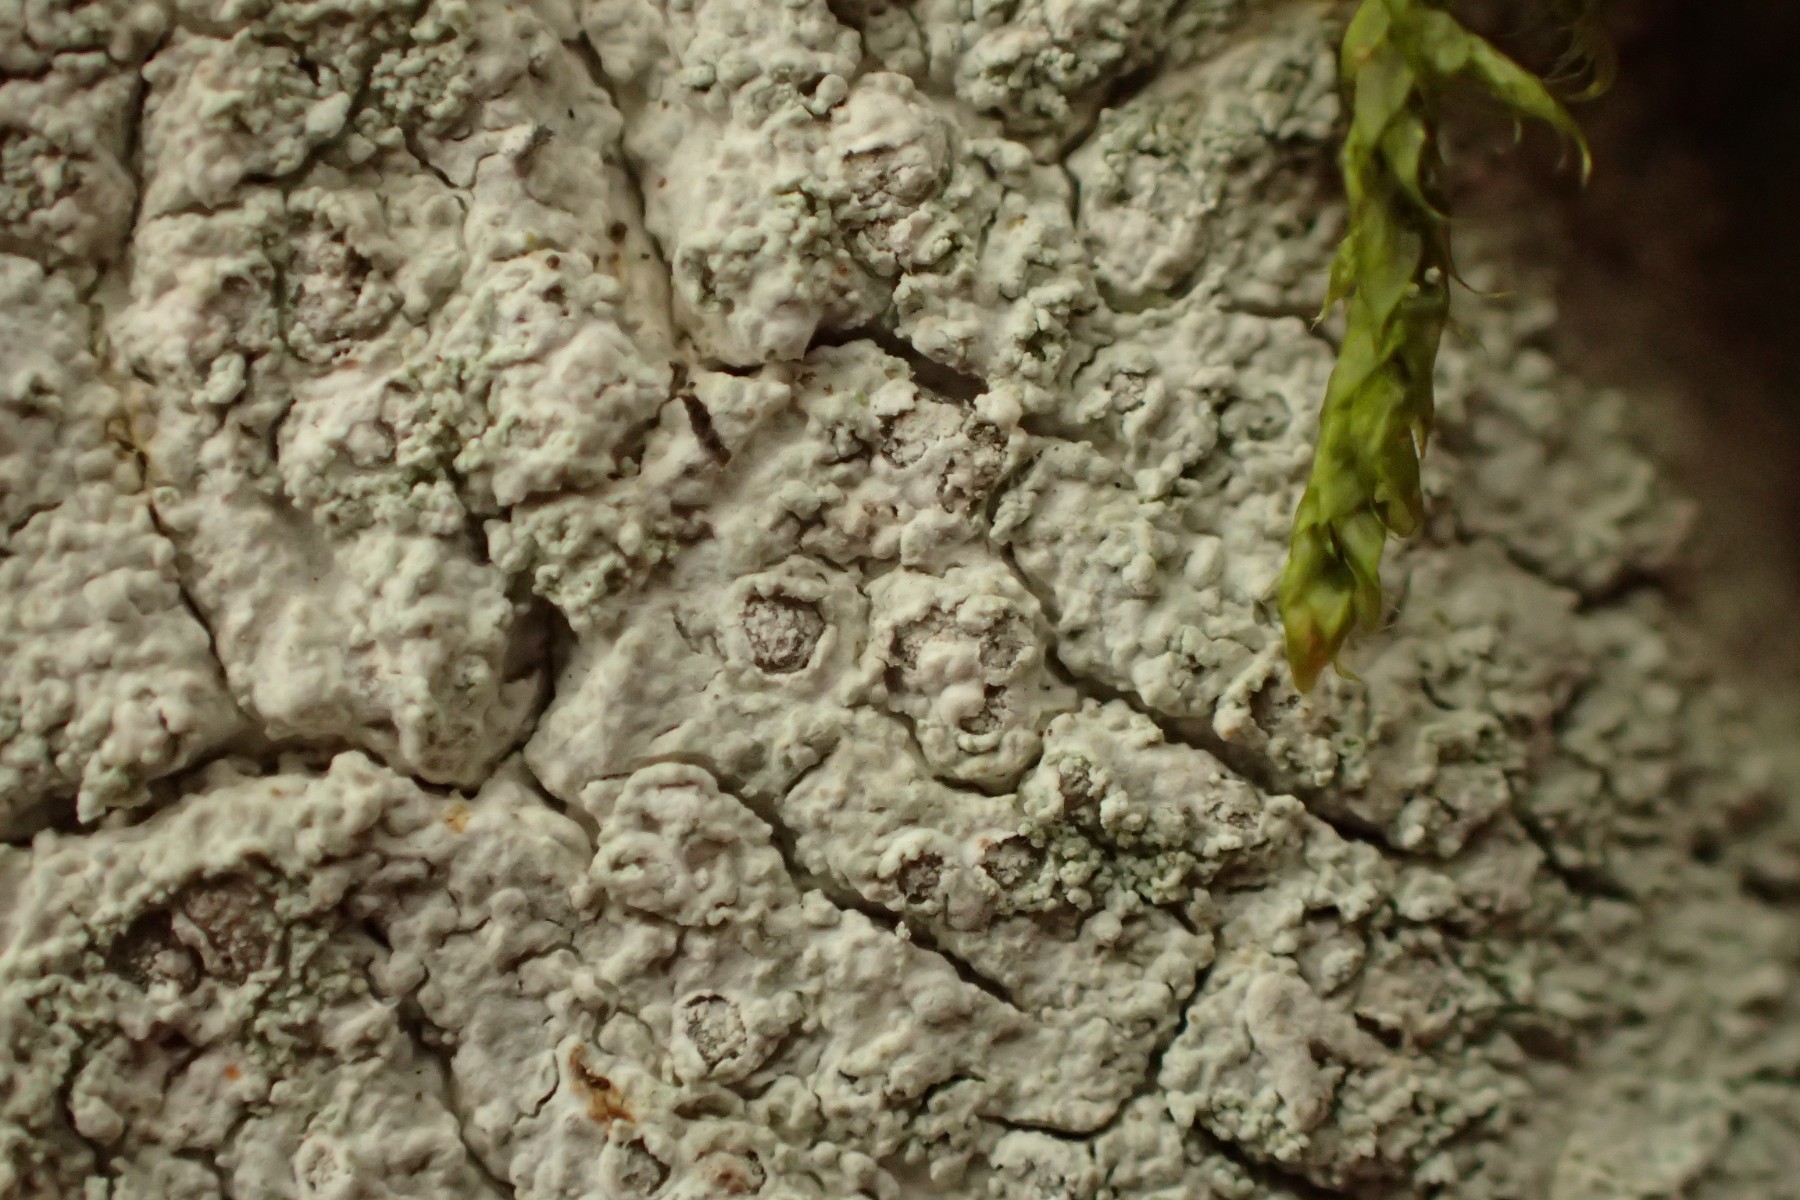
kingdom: Fungi
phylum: Ascomycota
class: Lecanoromycetes
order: Ostropales
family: Phlyctidaceae
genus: Phlyctis
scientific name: Phlyctis agelaea
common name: kønnet sølvlav
